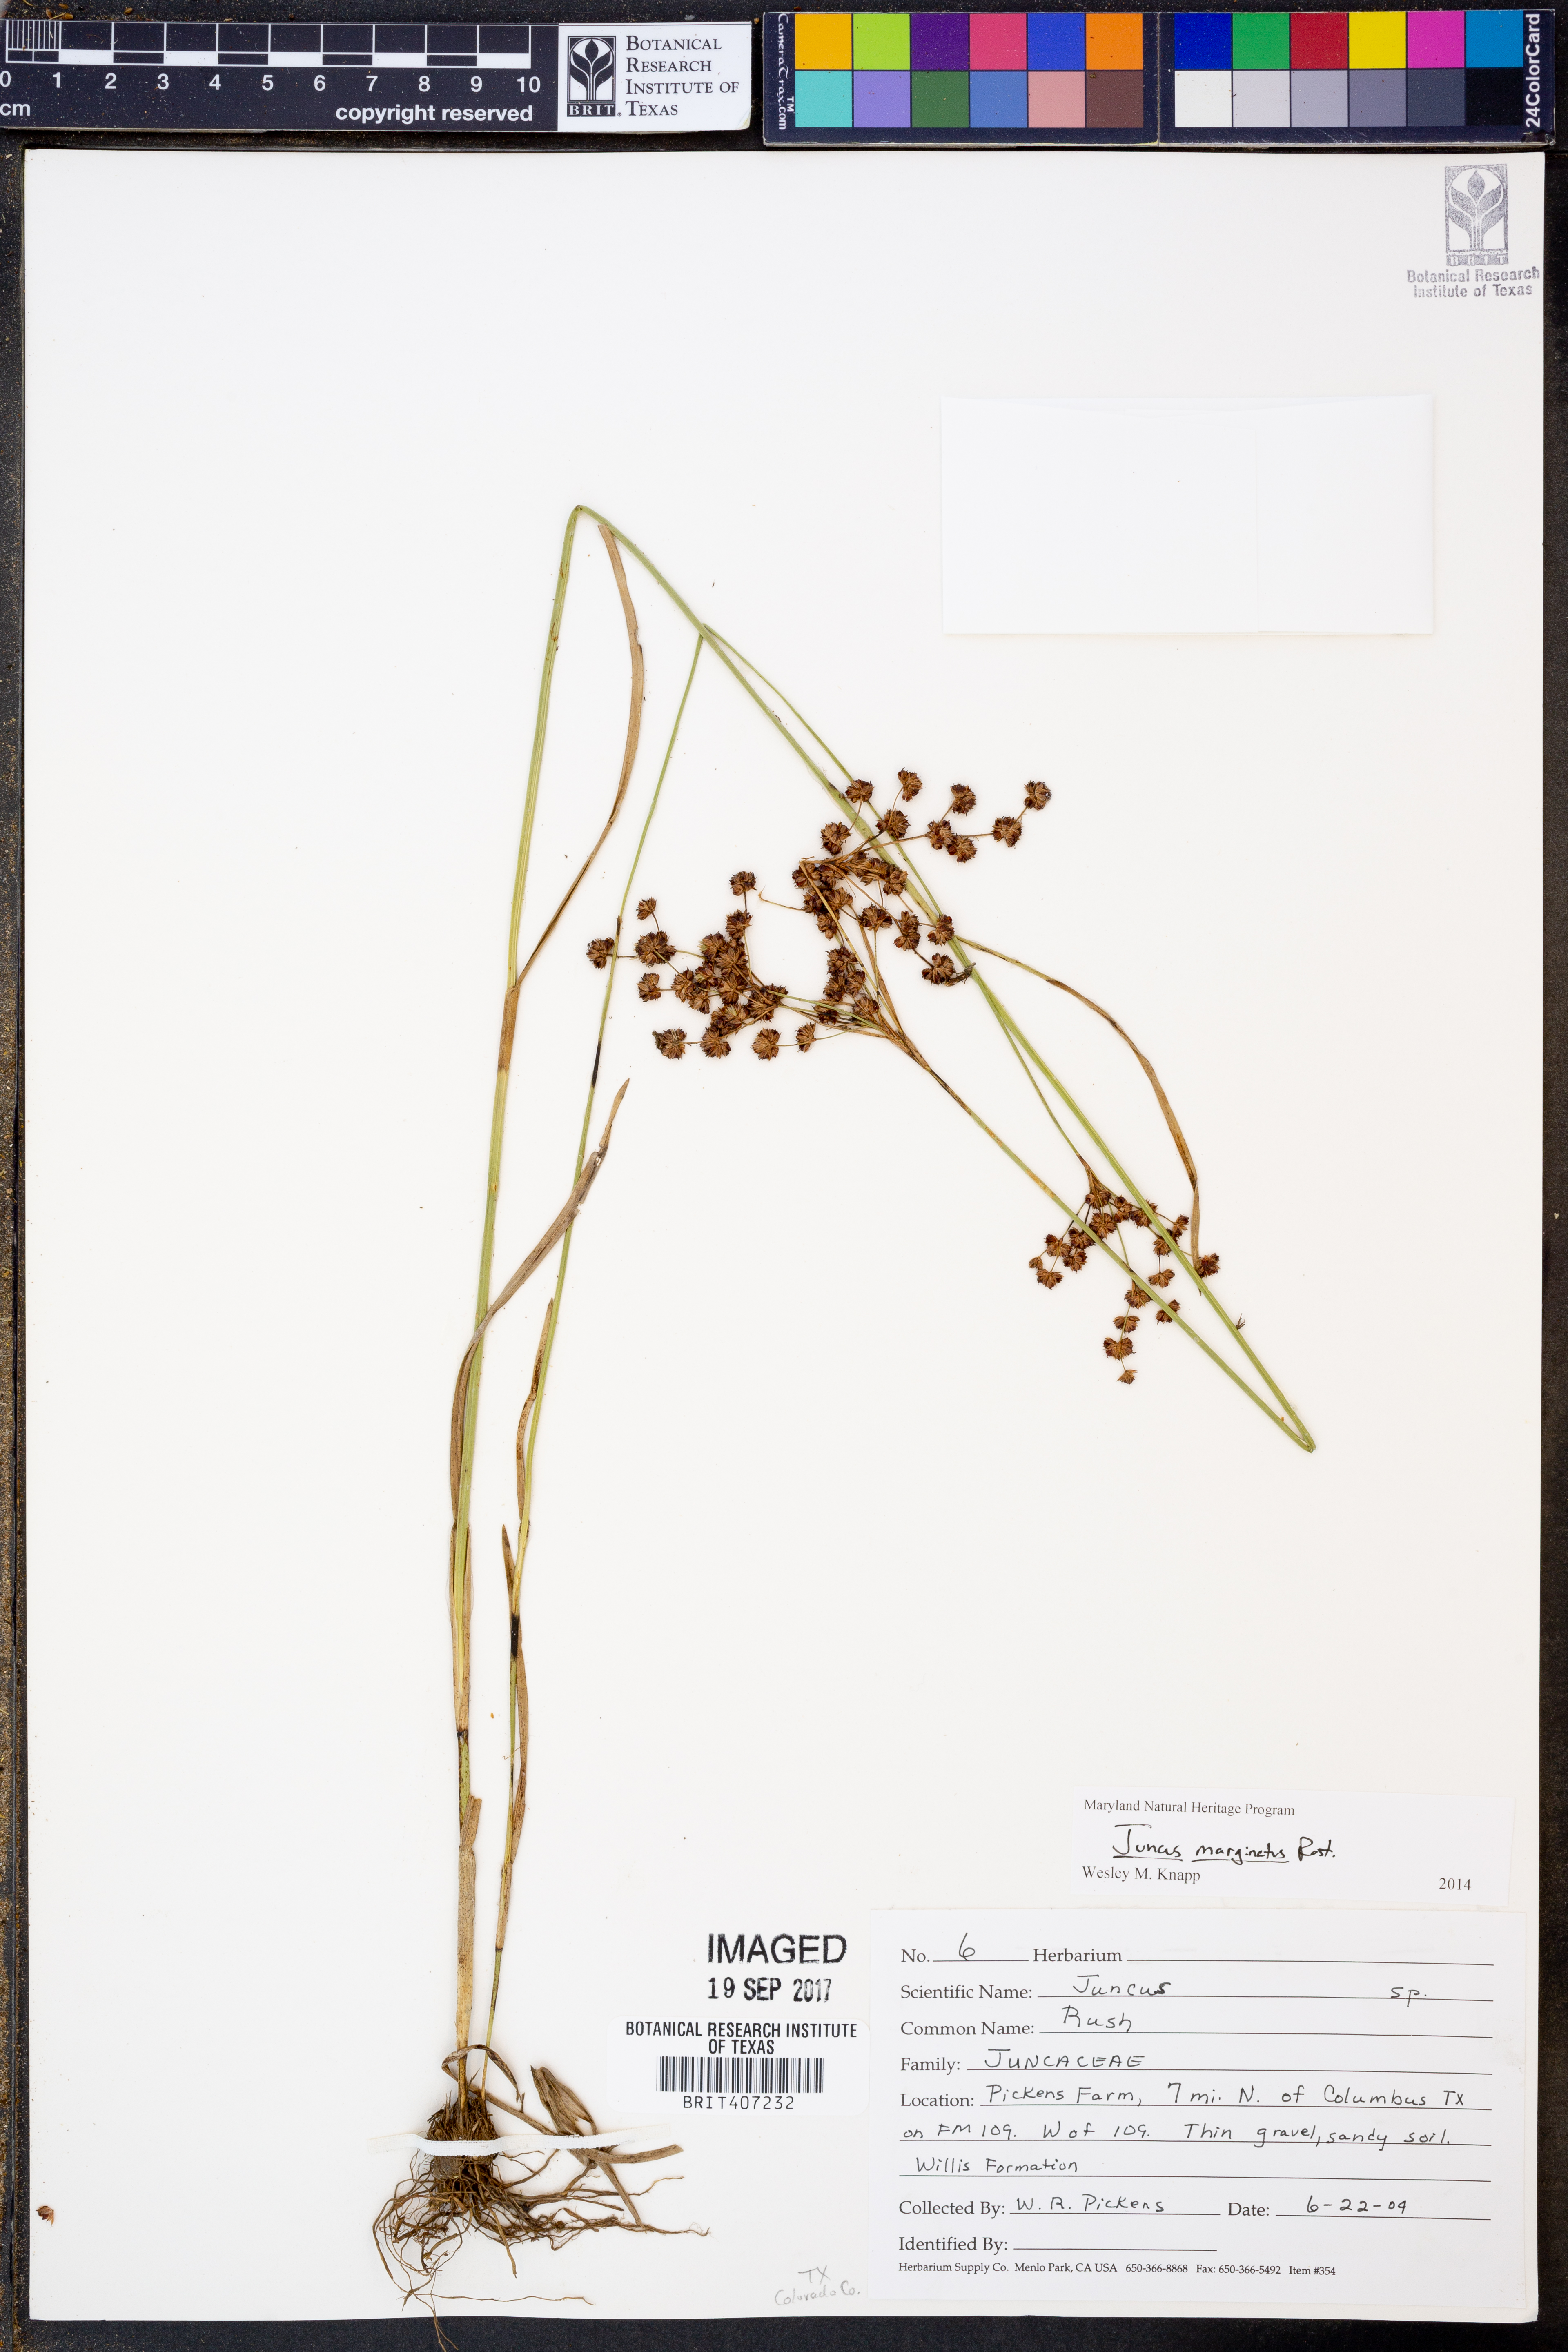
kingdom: Plantae
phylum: Tracheophyta
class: Liliopsida
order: Poales
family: Juncaceae
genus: Juncus
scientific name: Juncus marginatus
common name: Grass-leaf rush
